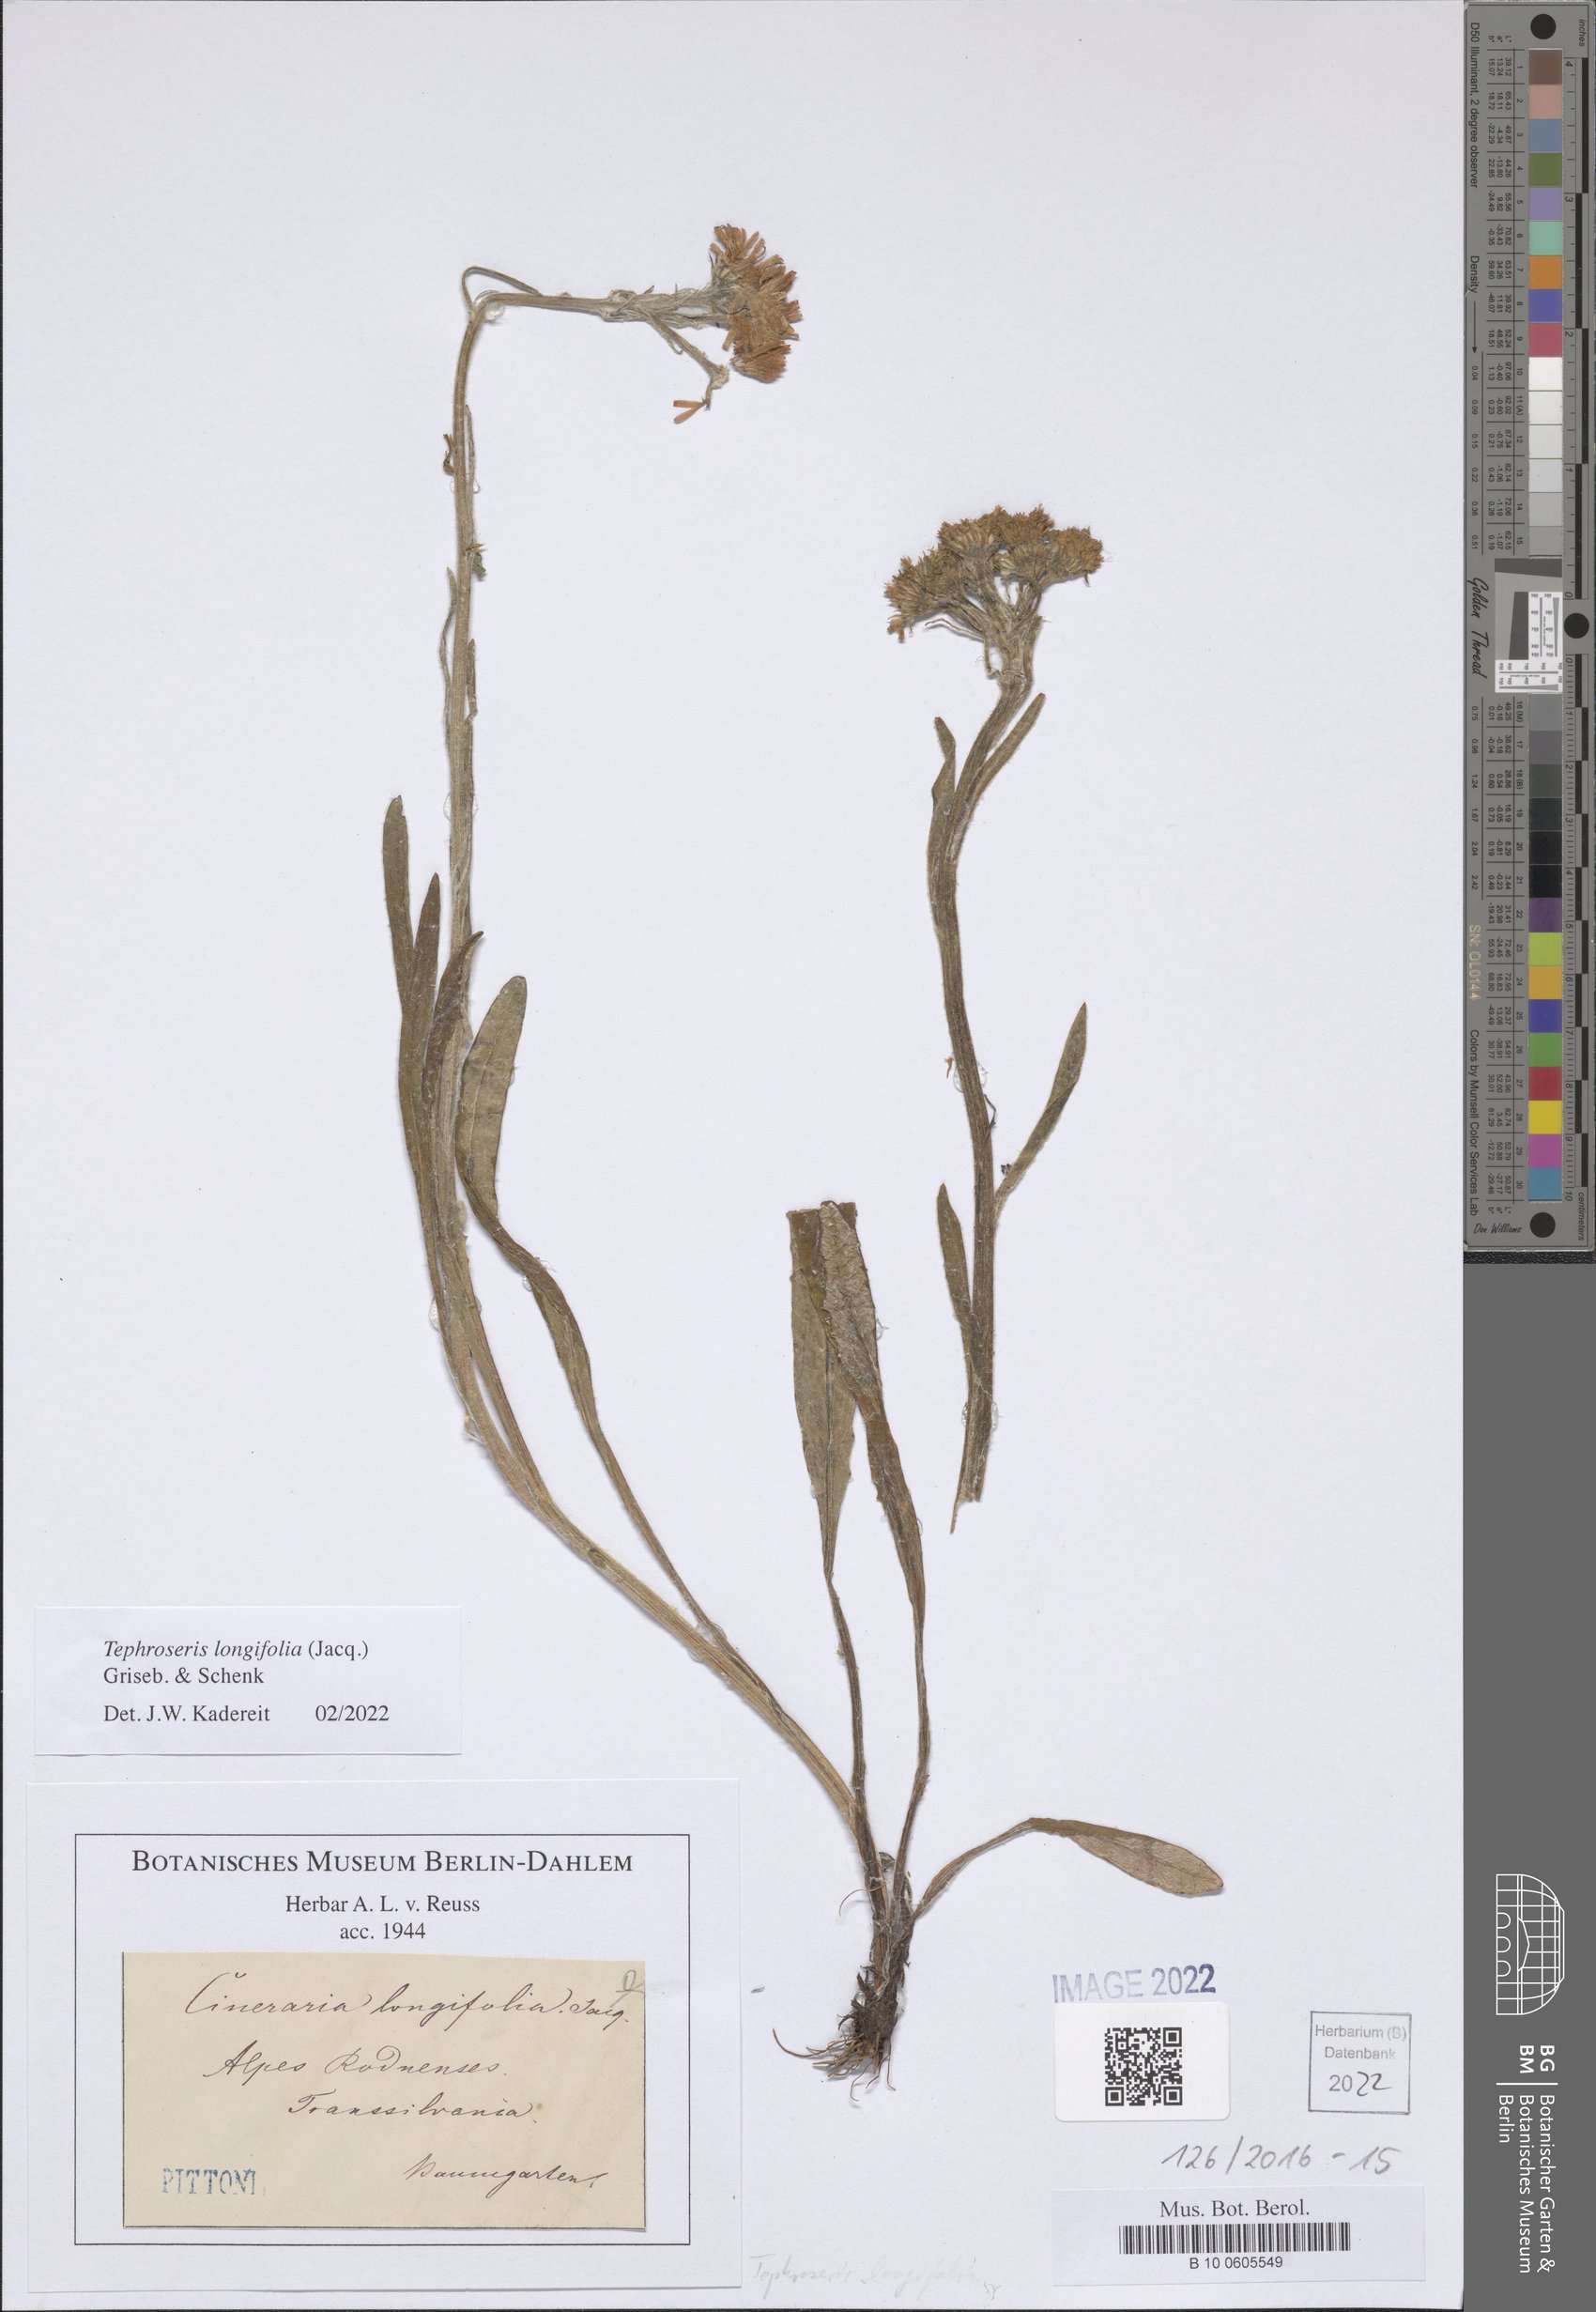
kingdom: Plantae
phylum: Tracheophyta
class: Magnoliopsida
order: Asterales
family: Asteraceae
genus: Tephroseris
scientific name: Tephroseris longifolia
